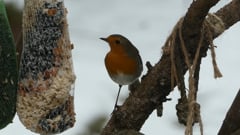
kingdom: Animalia
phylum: Chordata
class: Aves
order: Passeriformes
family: Muscicapidae
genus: Erithacus
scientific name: Erithacus rubecula
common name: European robin
